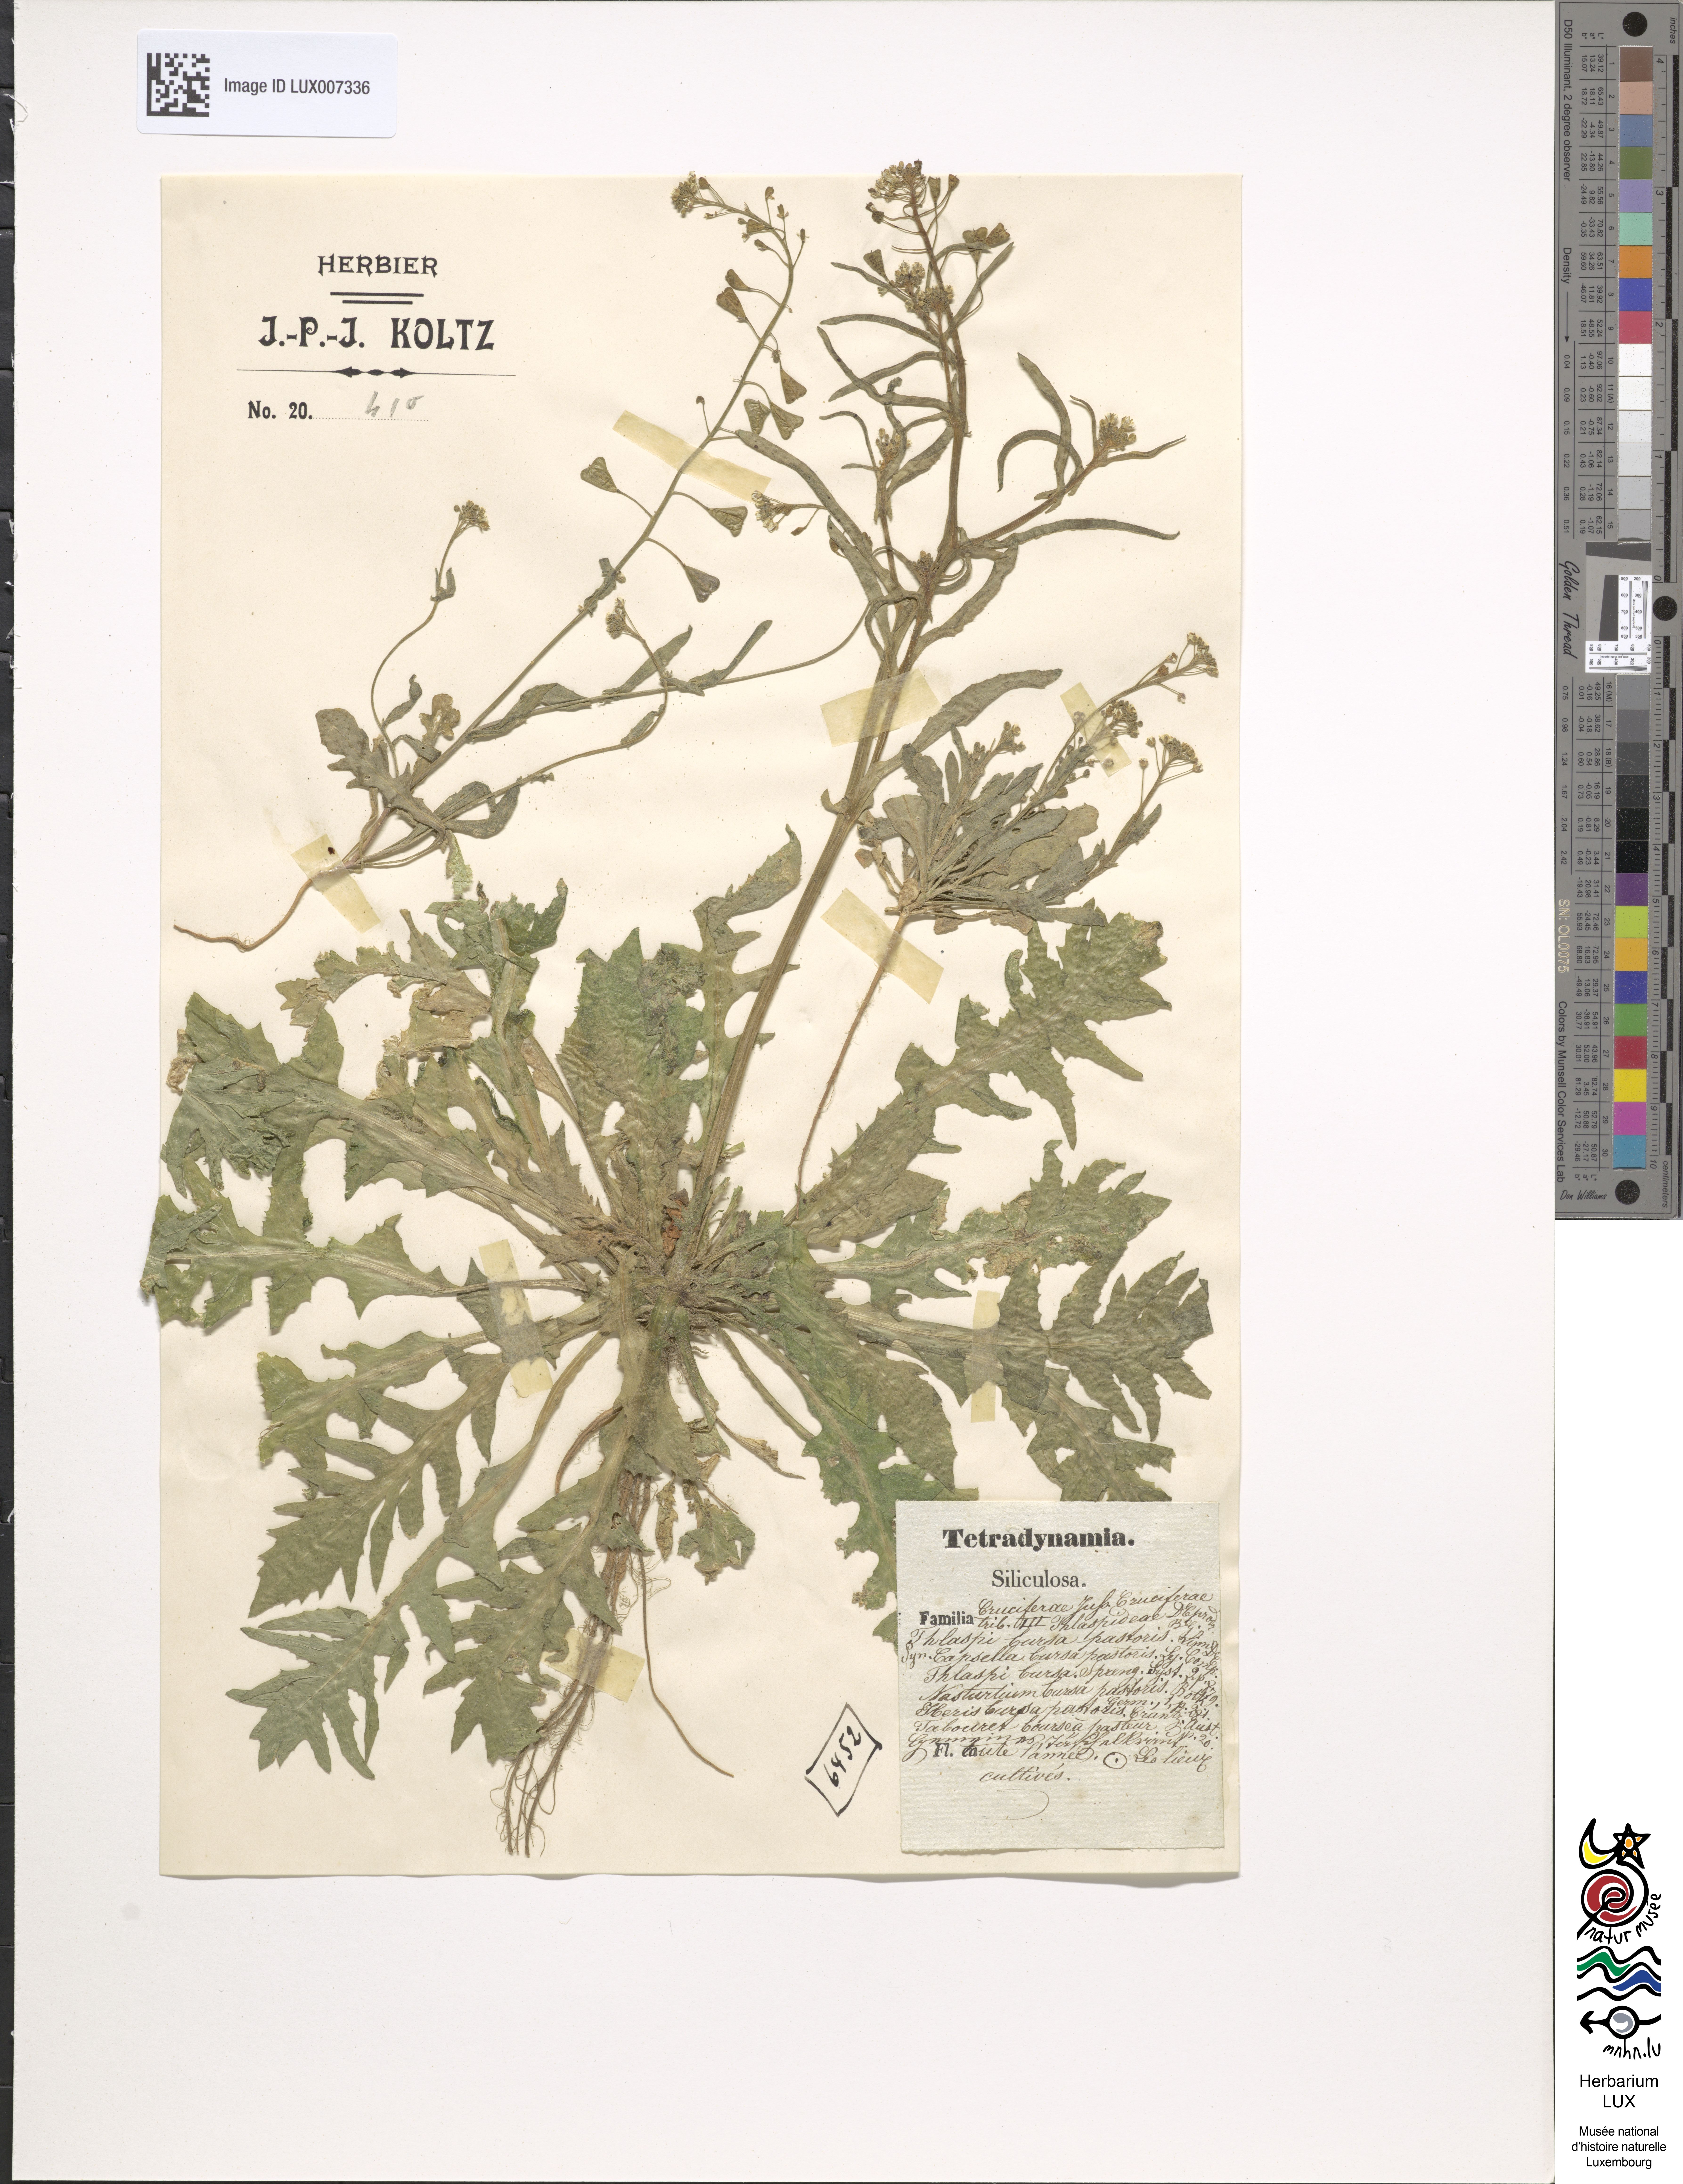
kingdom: Plantae
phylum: Tracheophyta
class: Magnoliopsida
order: Brassicales
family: Brassicaceae
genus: Capsella
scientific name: Capsella bursa-pastoris
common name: Shepherd's purse
